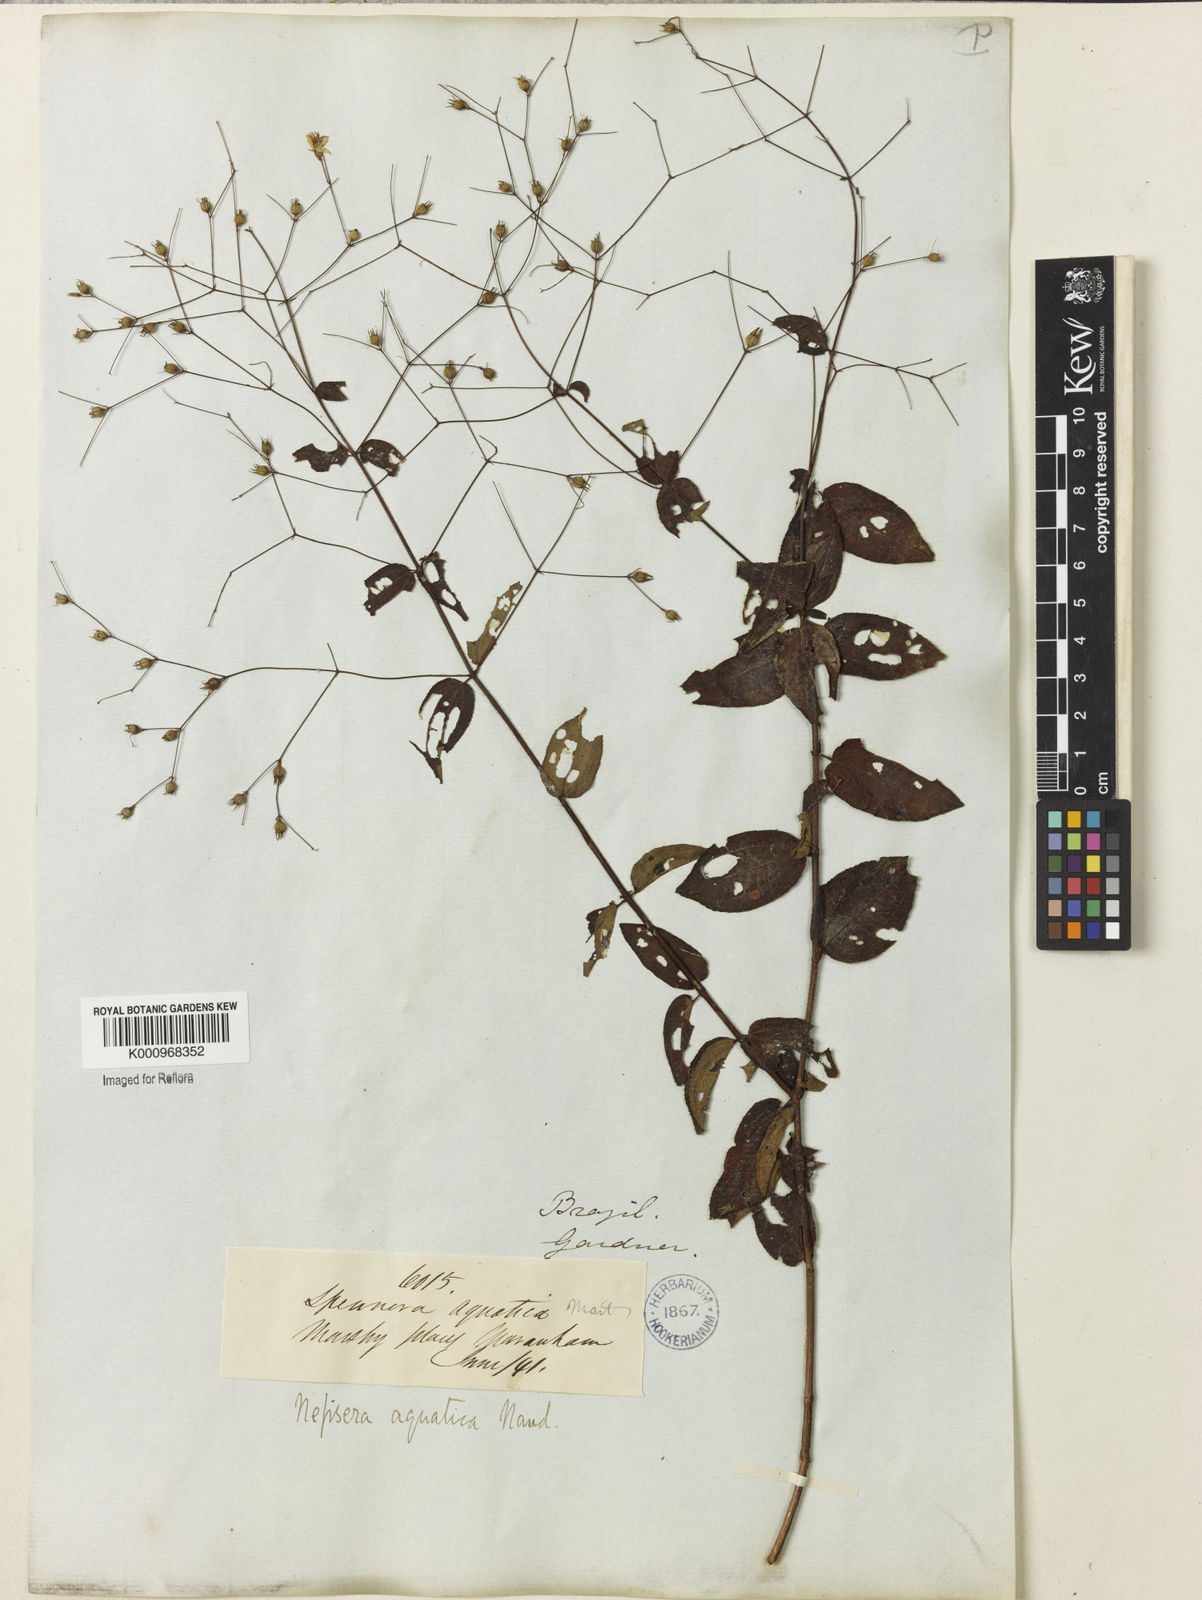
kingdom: Plantae
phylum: Tracheophyta
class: Magnoliopsida
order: Myrtales
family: Melastomataceae
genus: Nepsera
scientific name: Nepsera aquatica
